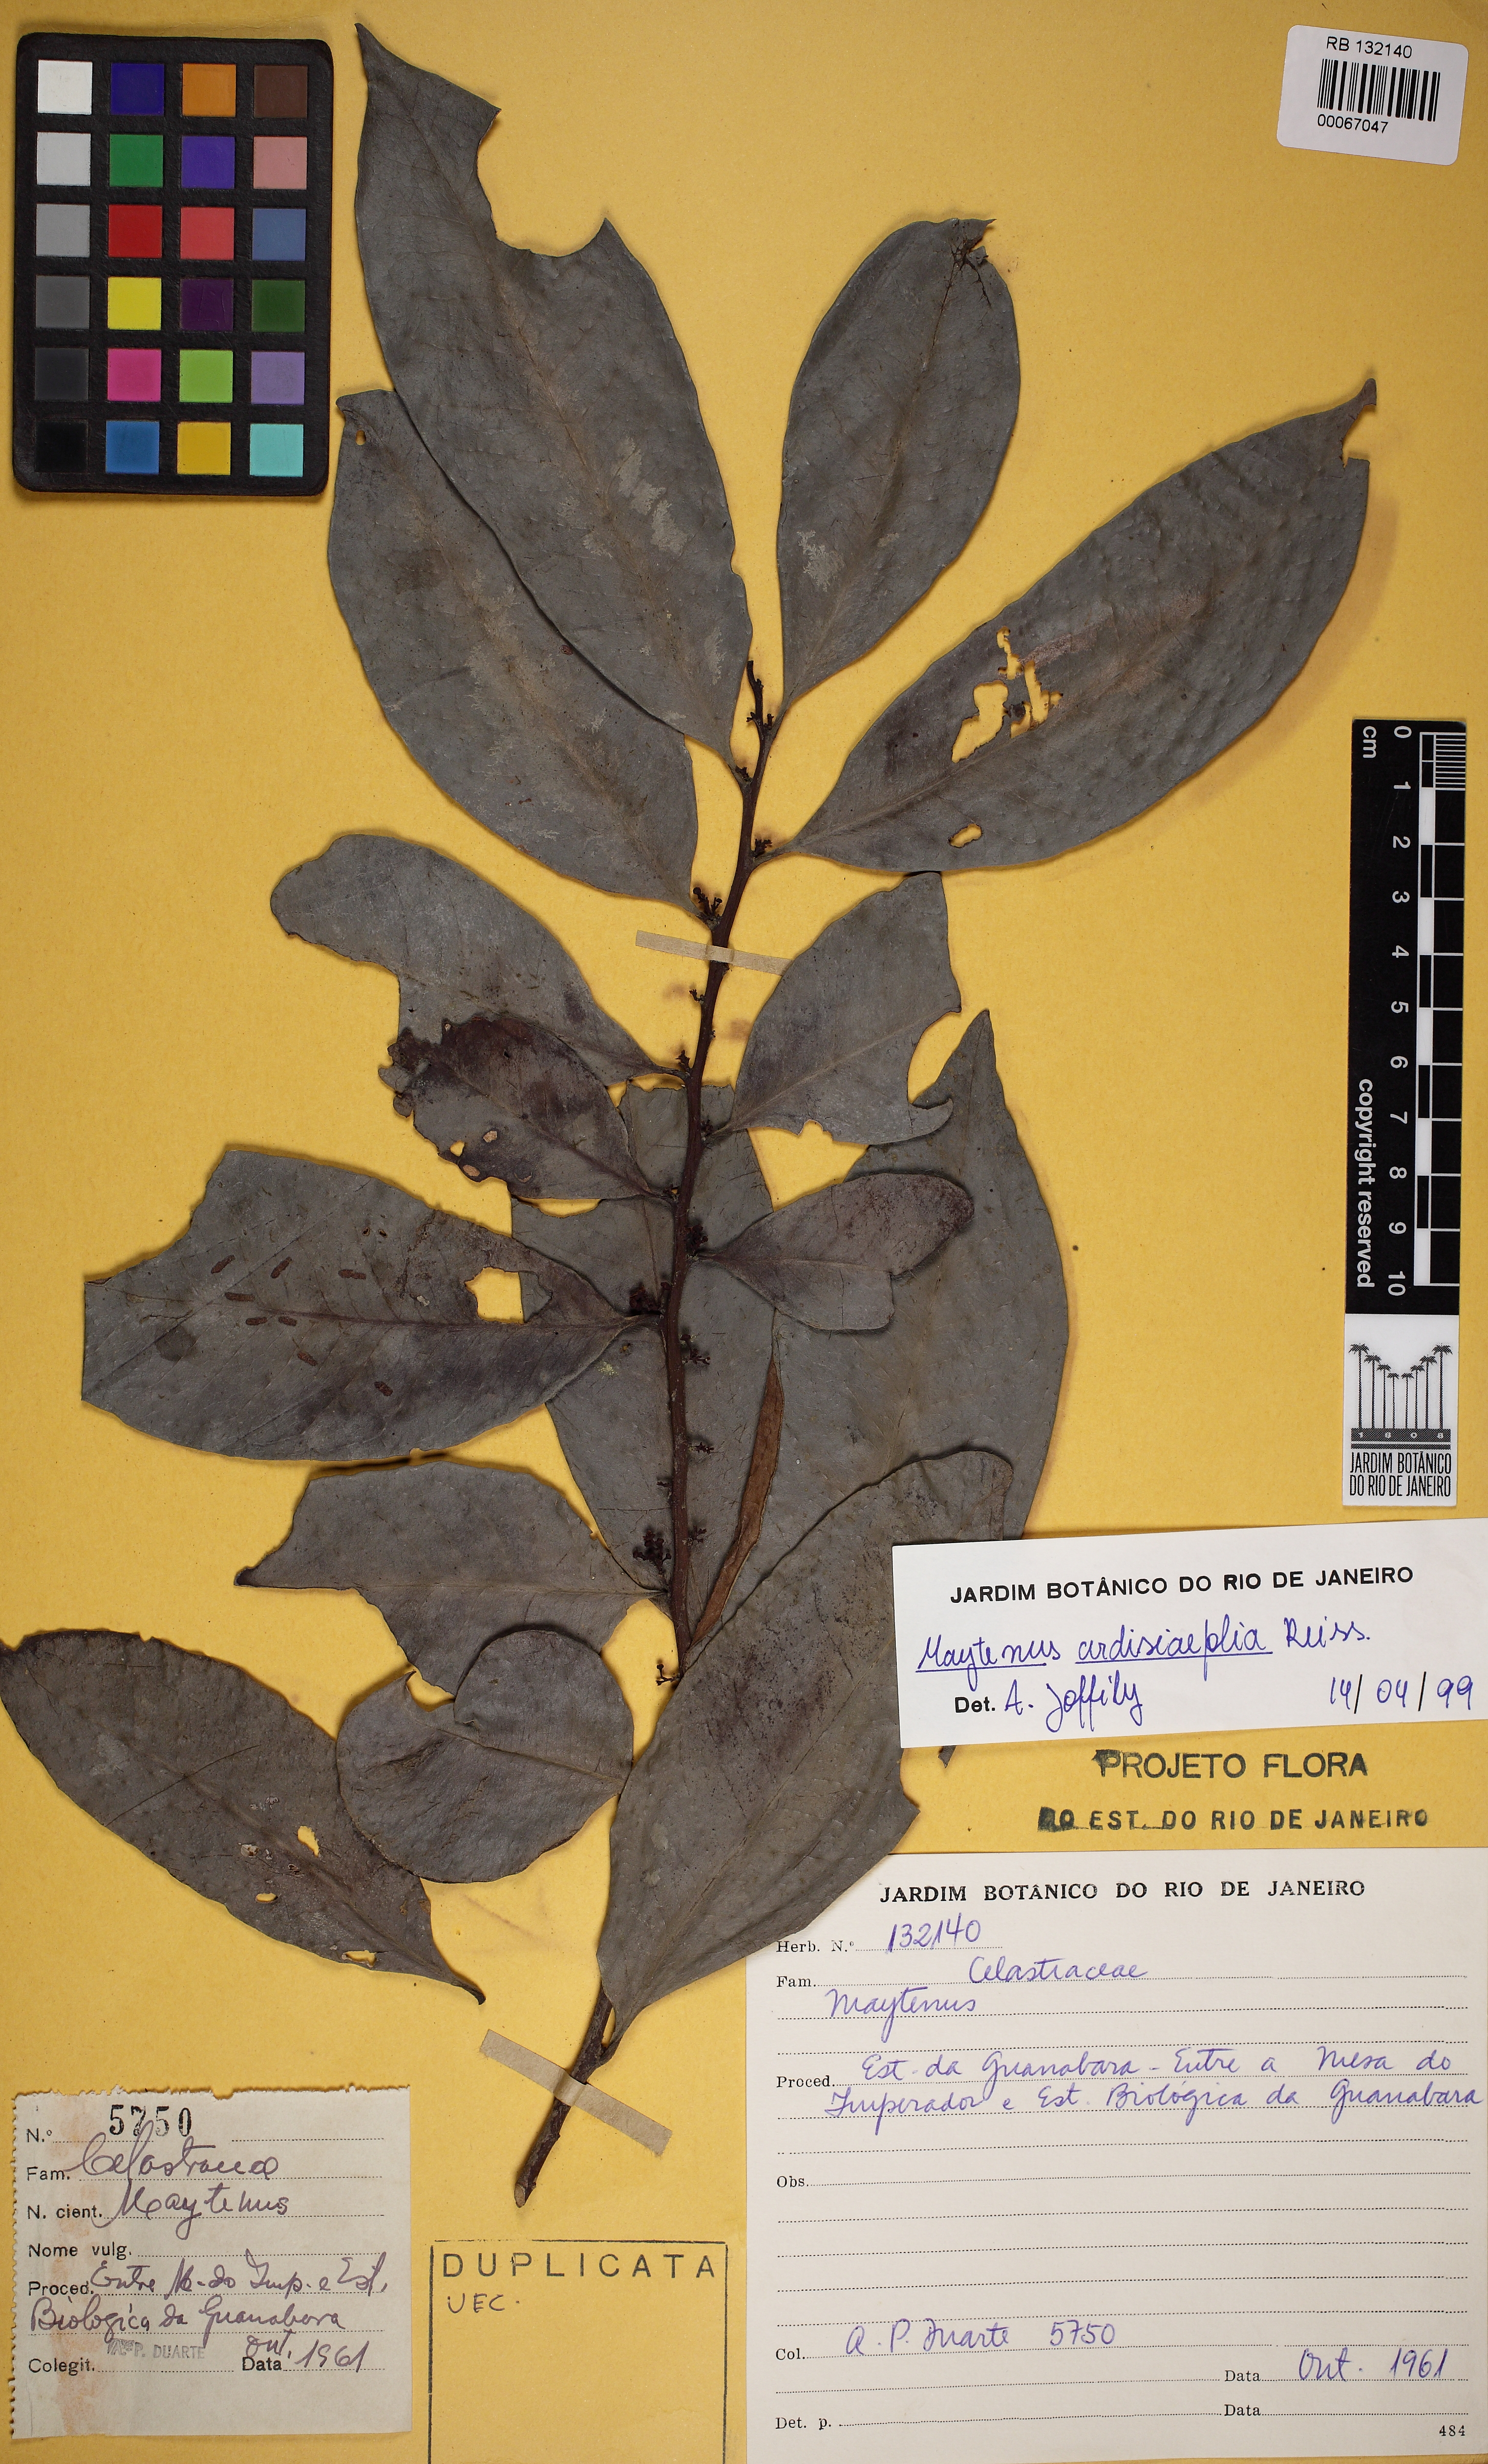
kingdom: Plantae
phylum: Tracheophyta
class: Magnoliopsida
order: Celastrales
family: Celastraceae
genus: Maytenus
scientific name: Maytenus
